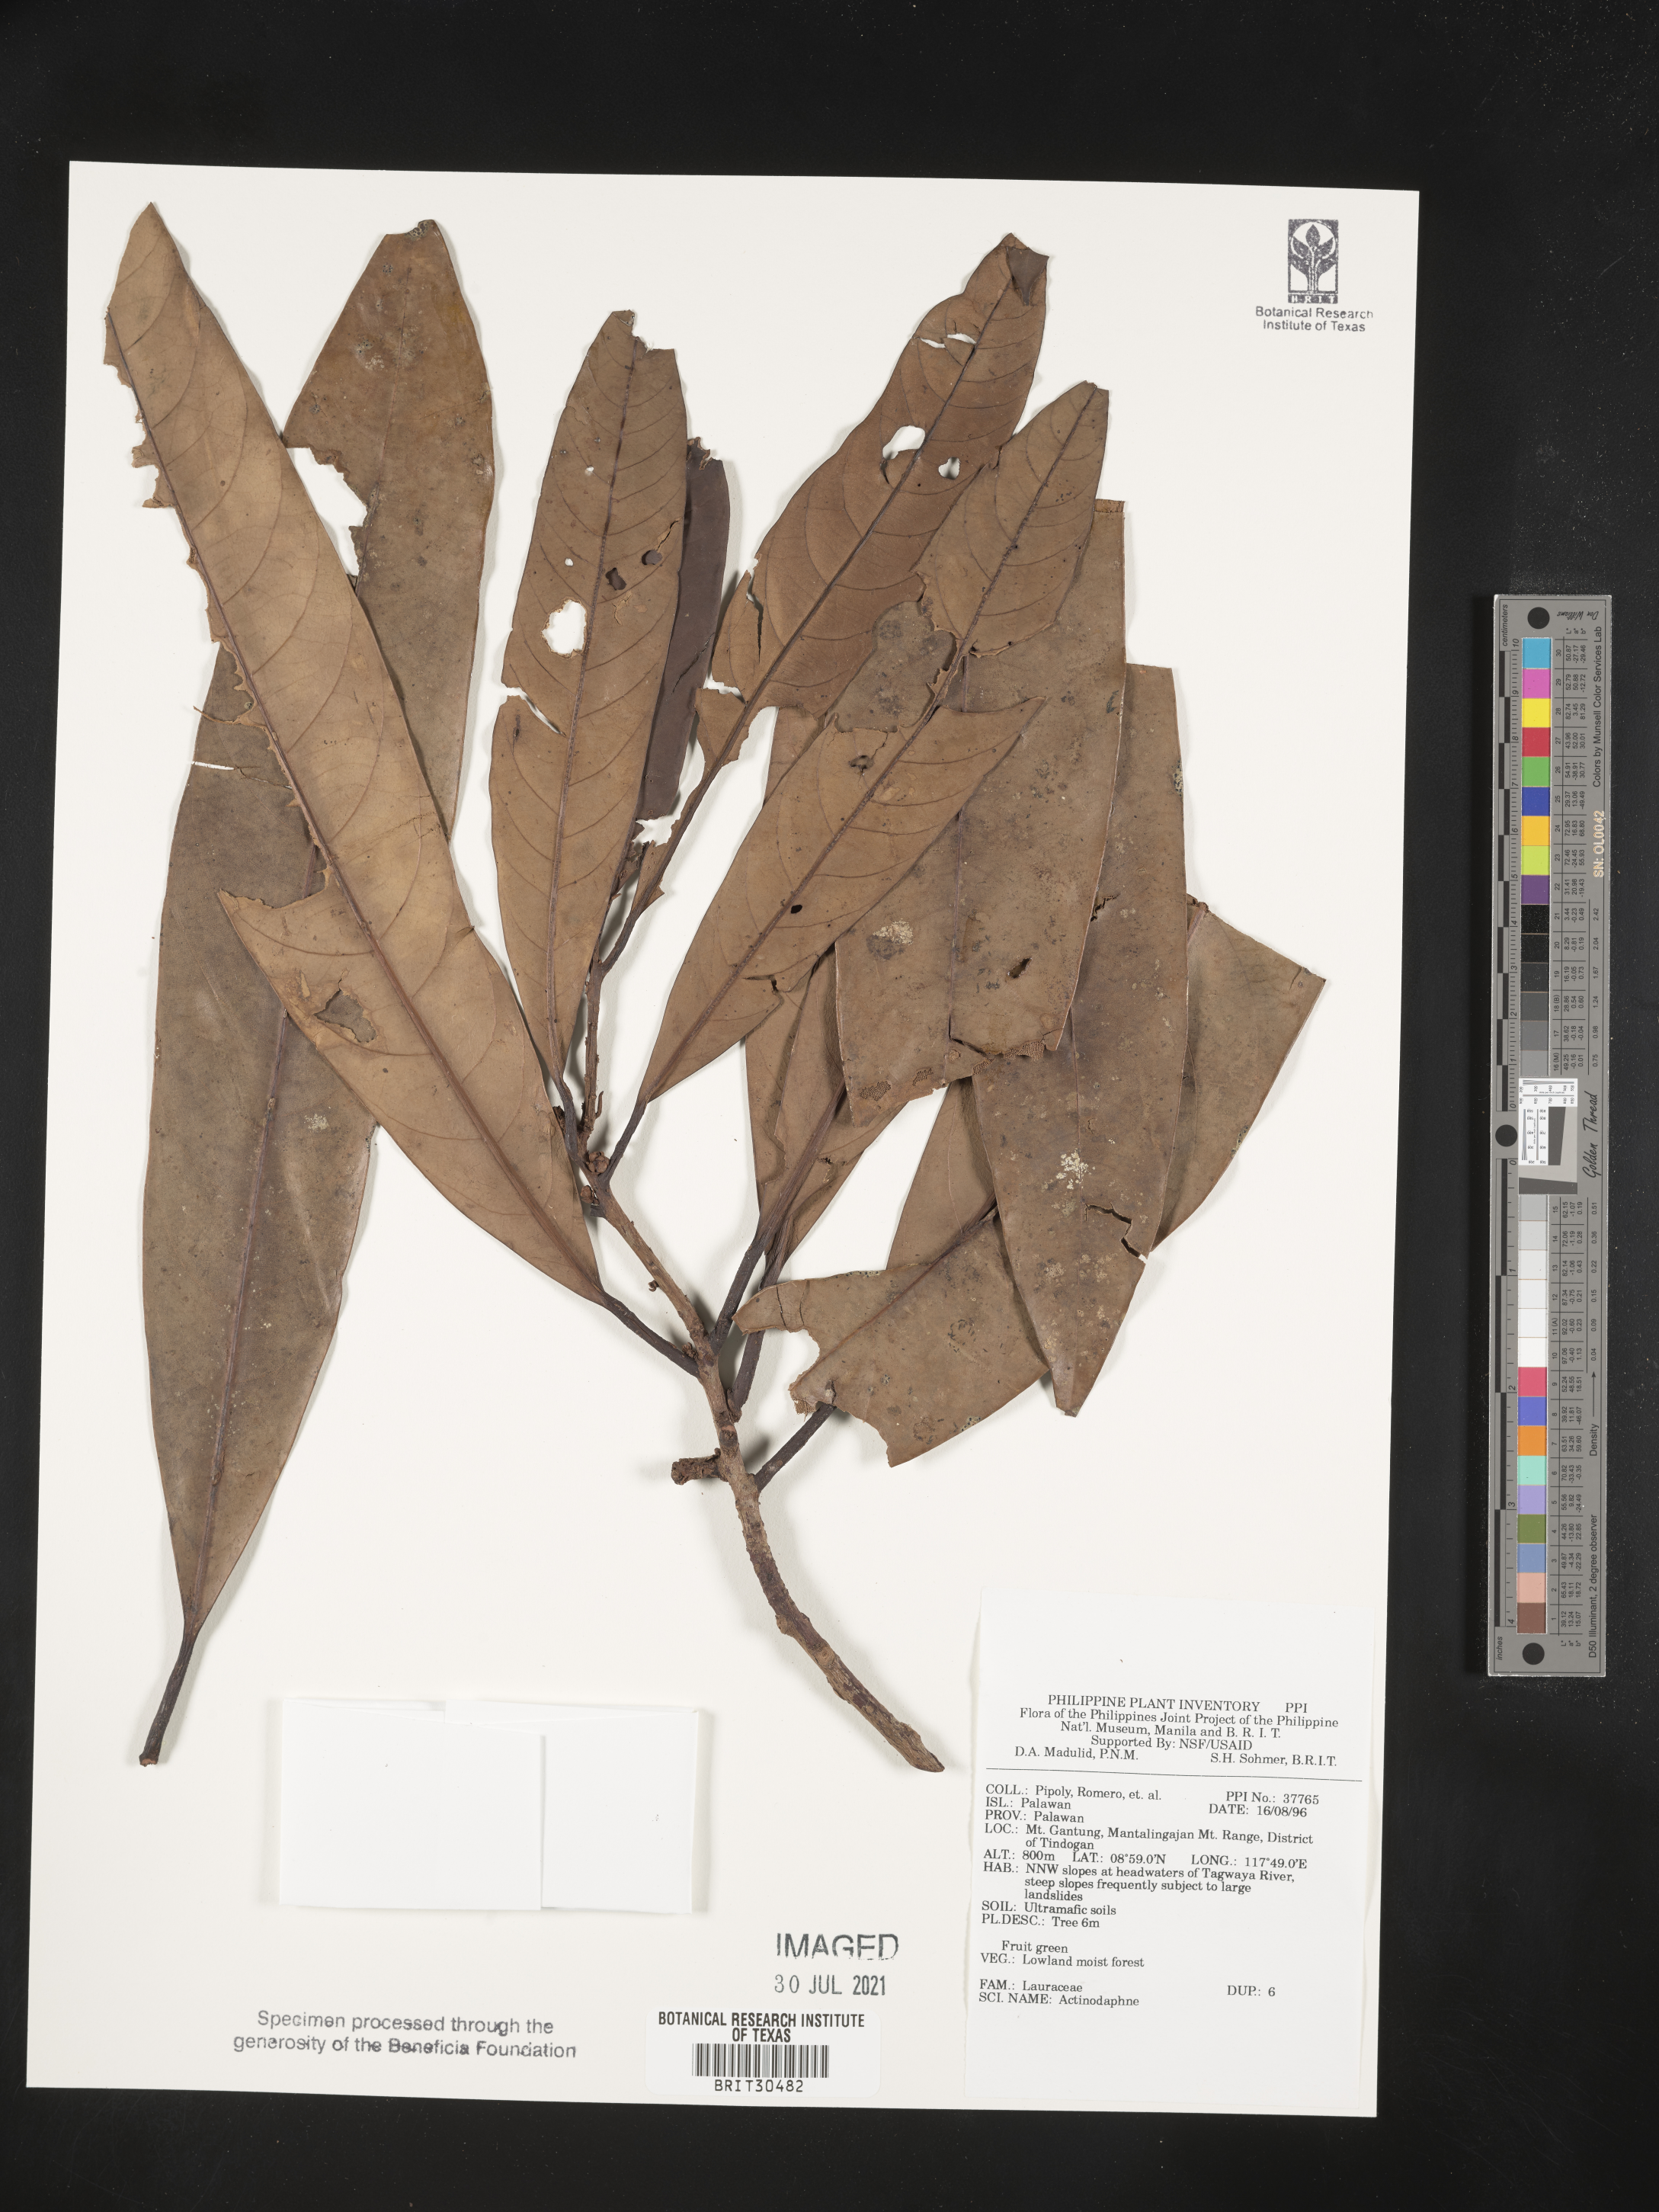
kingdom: Plantae
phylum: Tracheophyta
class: Magnoliopsida
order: Laurales
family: Lauraceae
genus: Actinodaphne
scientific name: Actinodaphne
